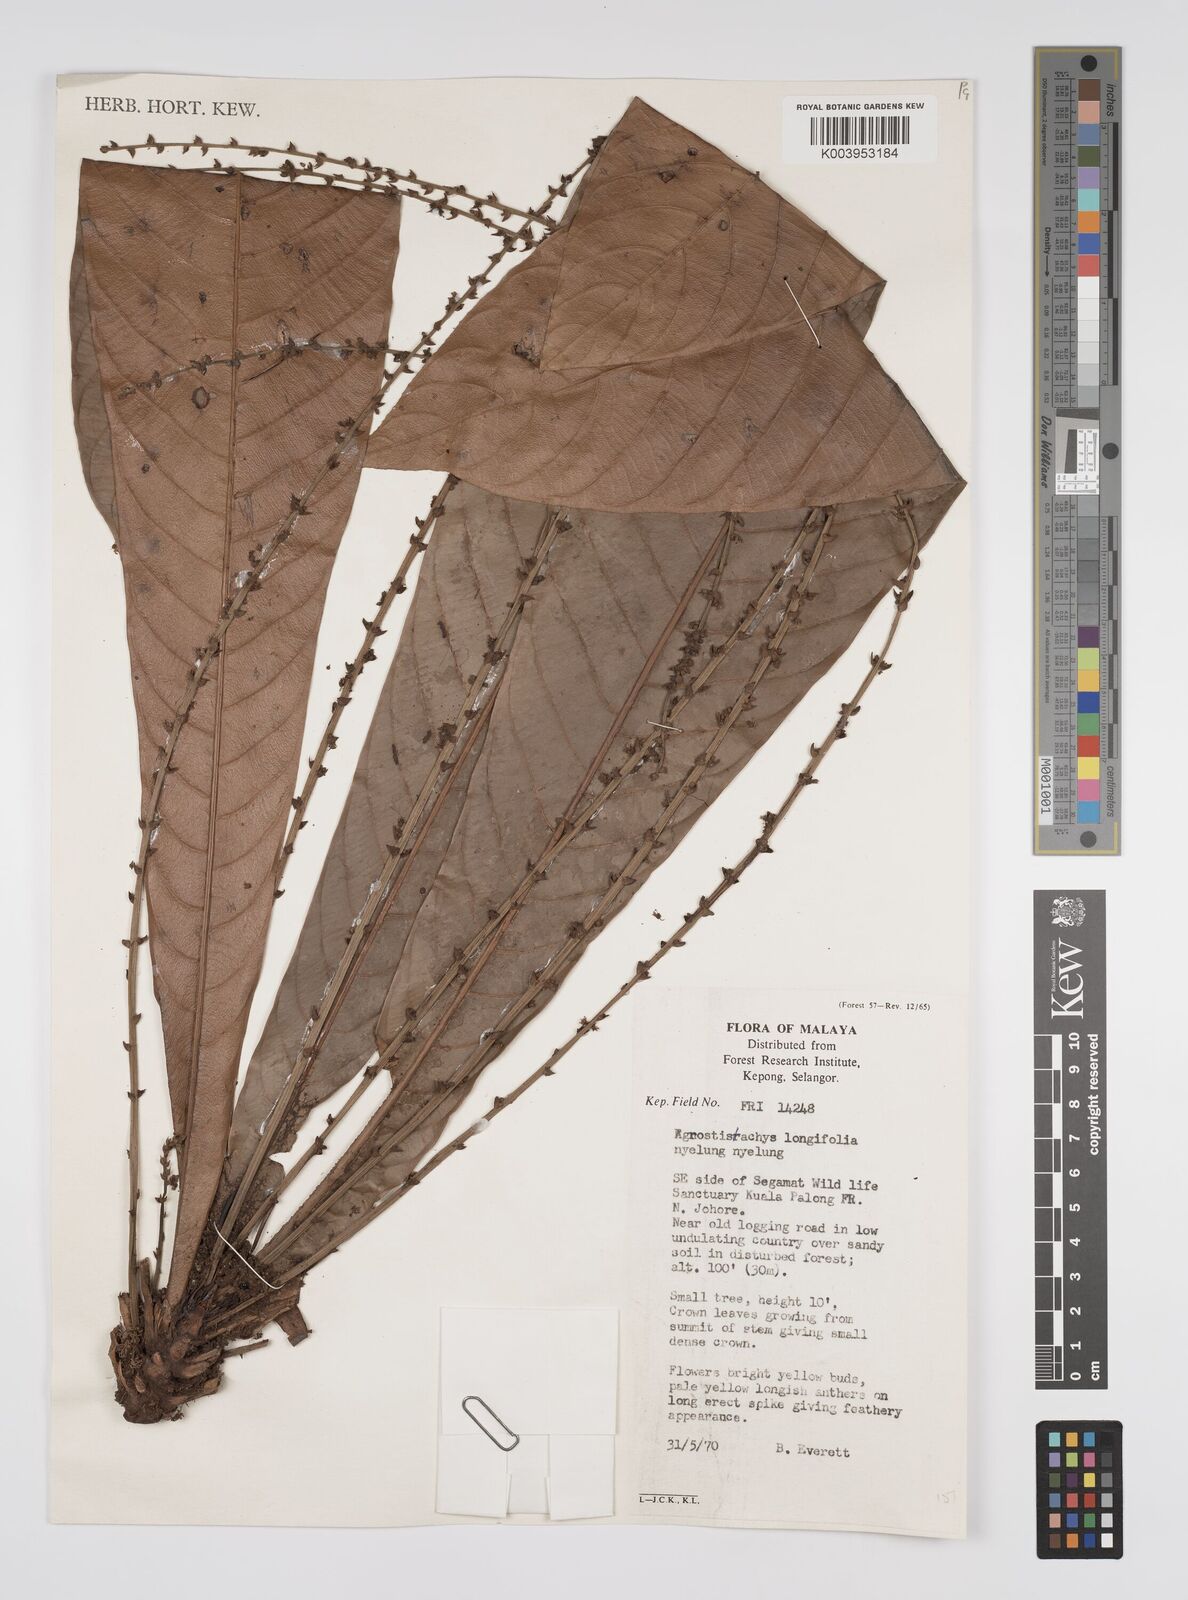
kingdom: Plantae
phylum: Tracheophyta
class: Magnoliopsida
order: Malpighiales
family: Euphorbiaceae
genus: Agrostistachys
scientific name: Agrostistachys borneensis
